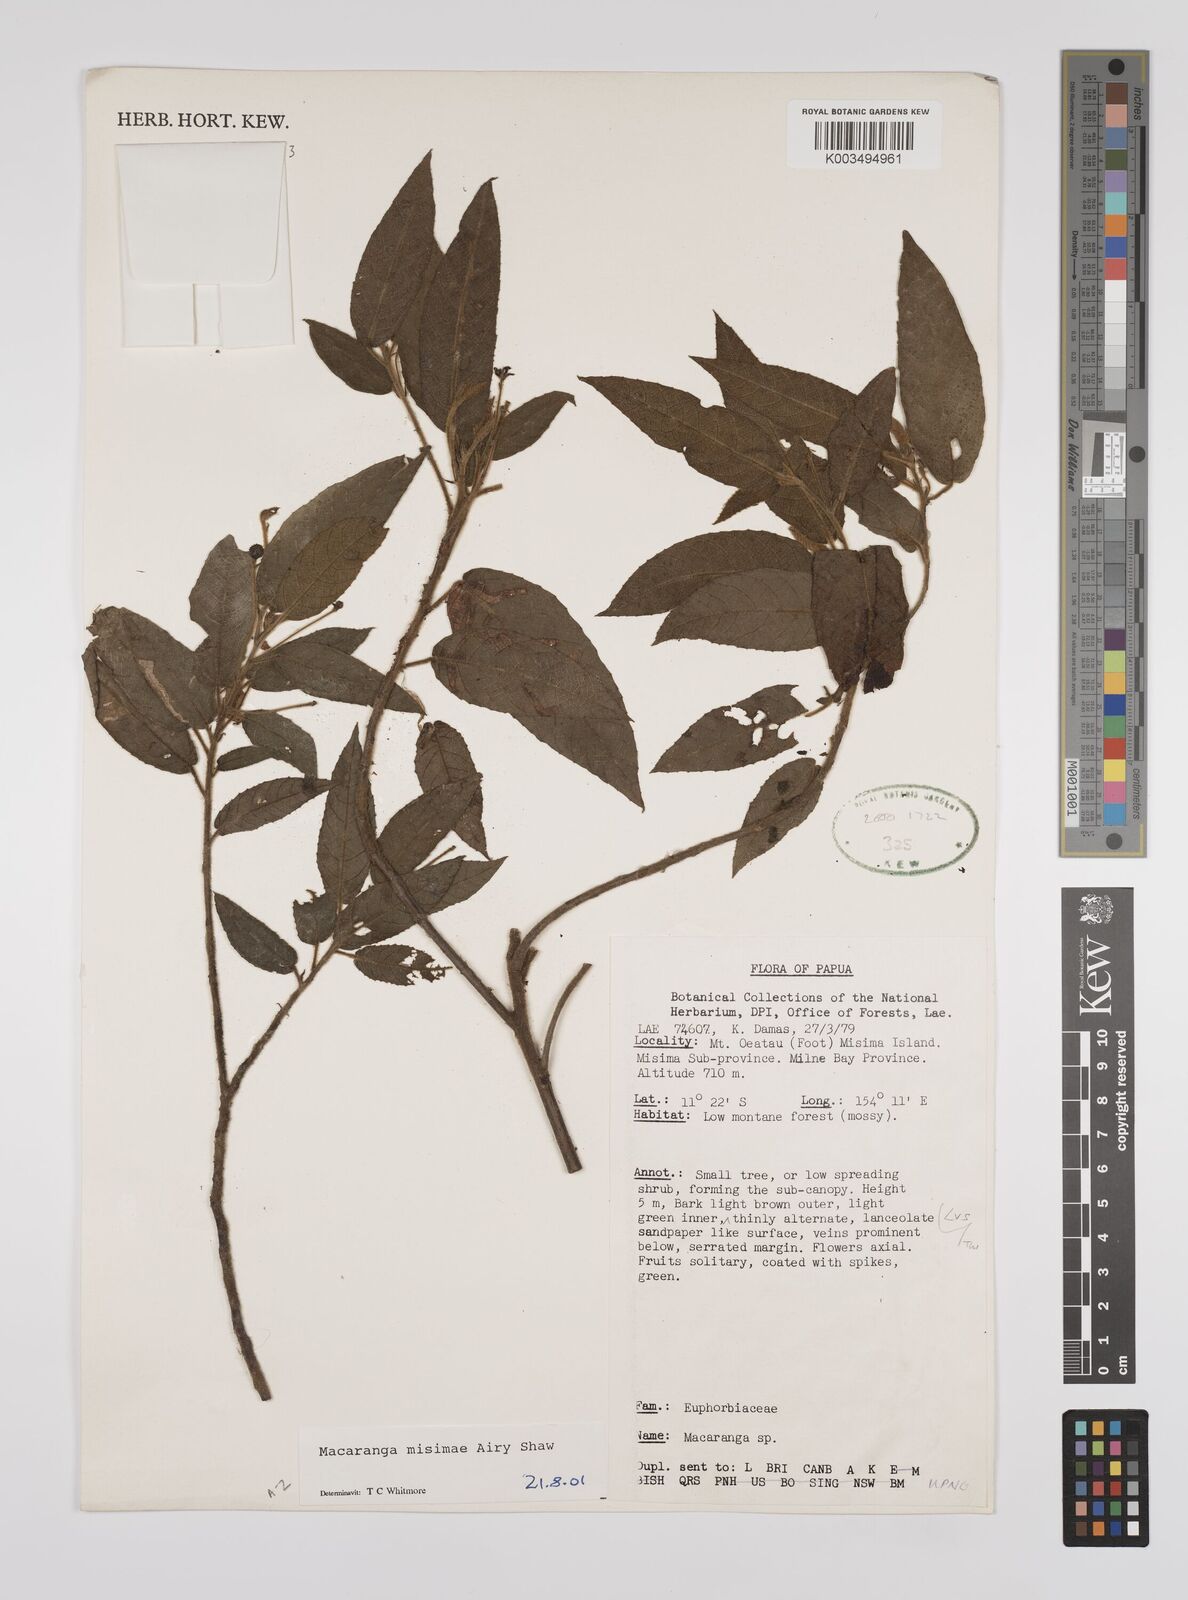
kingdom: Plantae
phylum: Tracheophyta
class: Magnoliopsida
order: Malpighiales
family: Euphorbiaceae
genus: Macaranga
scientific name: Macaranga misimae
